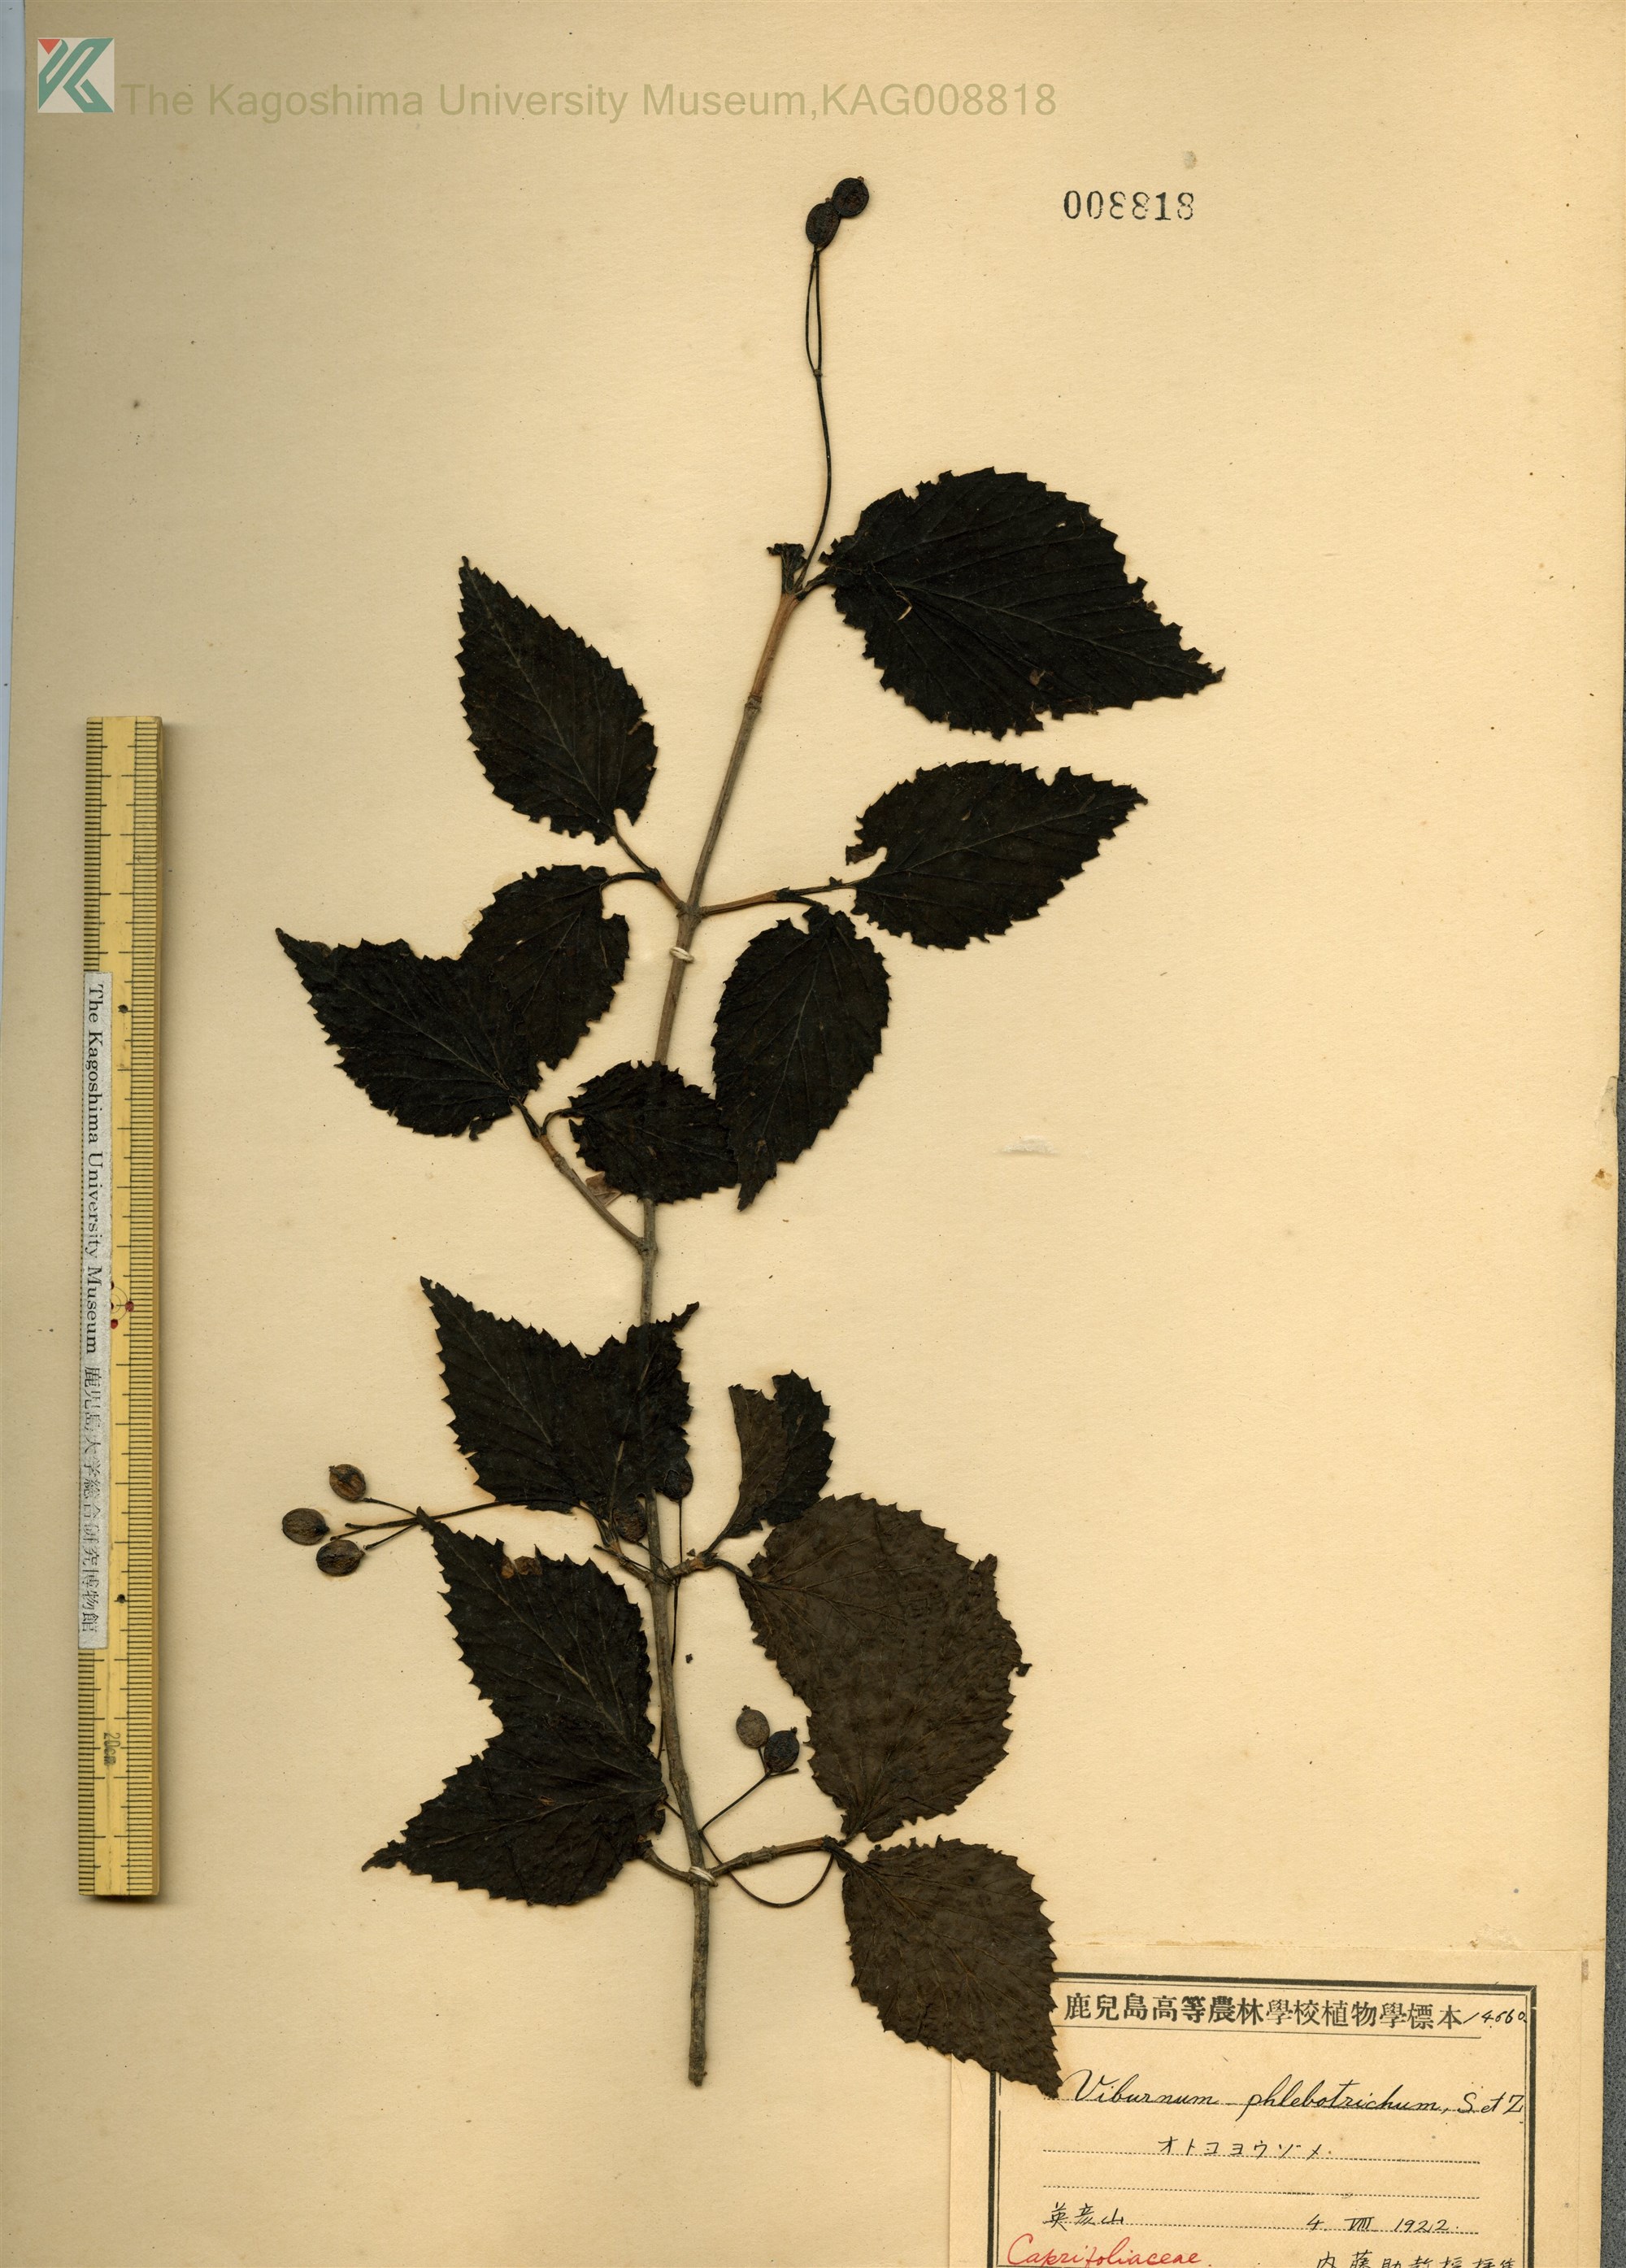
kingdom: Plantae
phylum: Tracheophyta
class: Magnoliopsida
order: Dipsacales
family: Viburnaceae
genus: Viburnum
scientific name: Viburnum phlebotrichum
